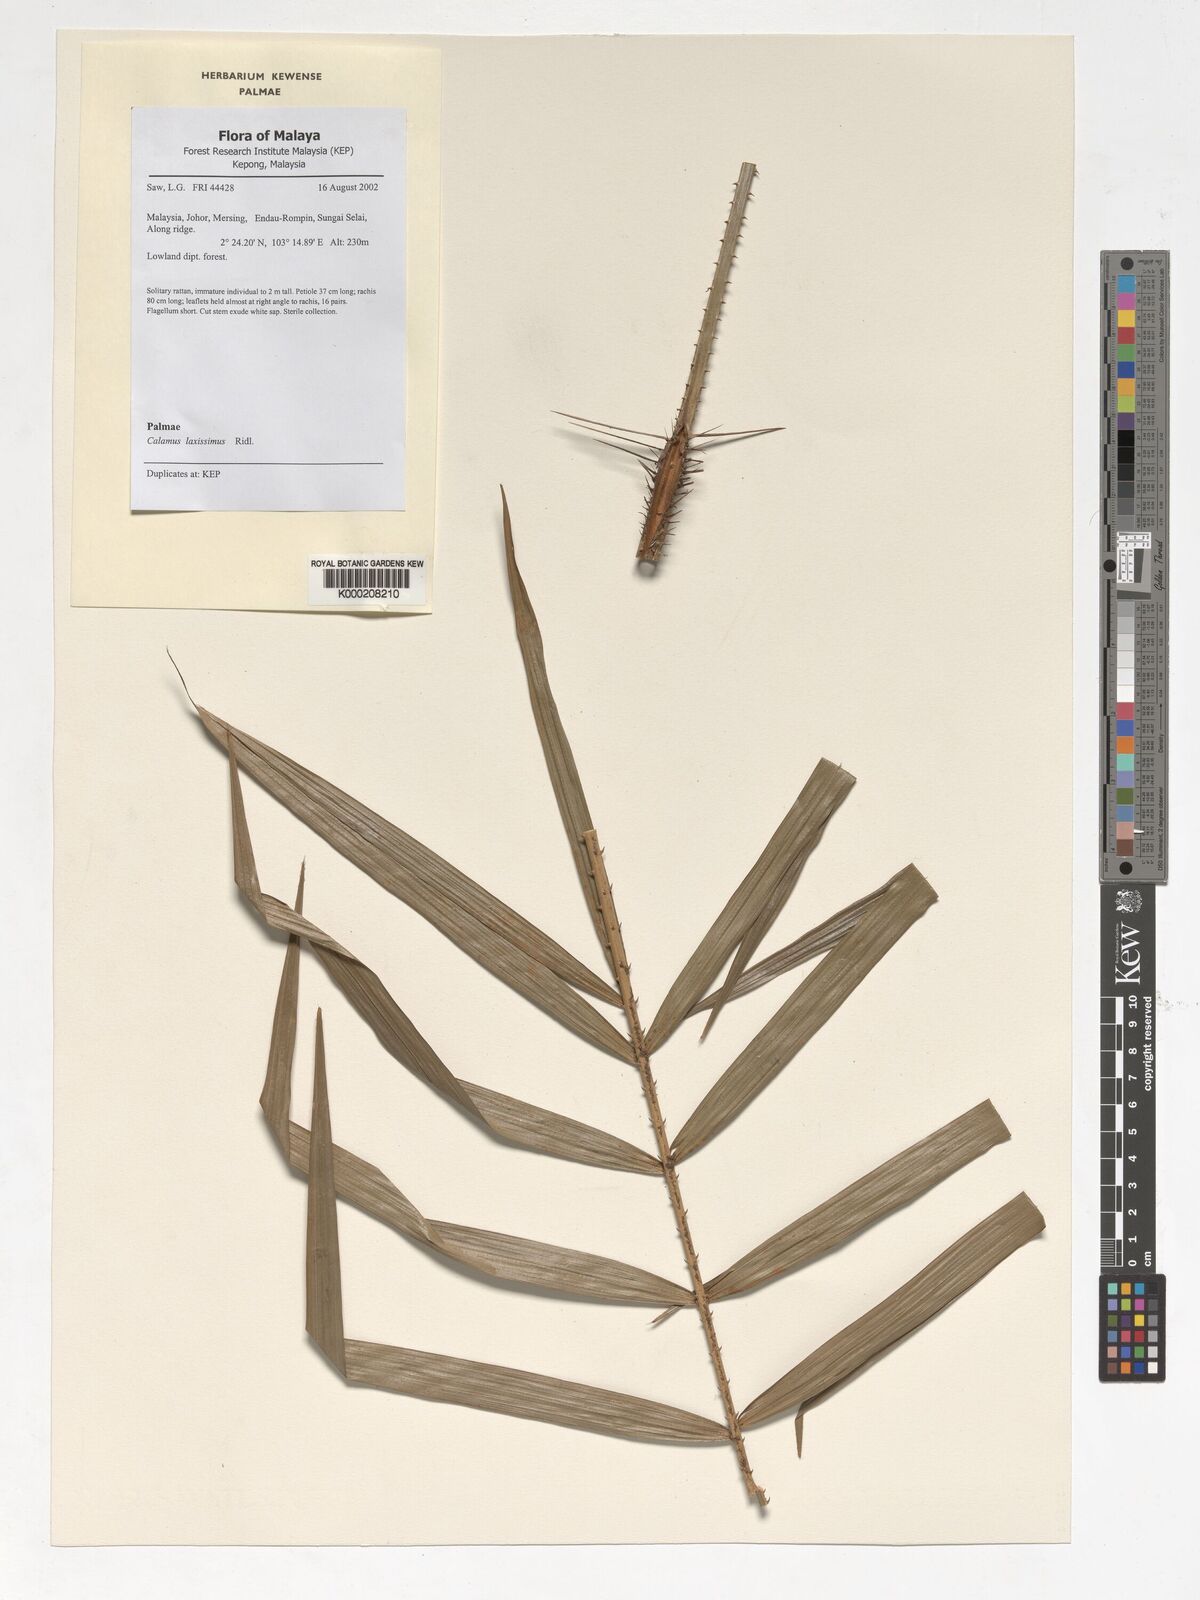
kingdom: Plantae
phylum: Tracheophyta
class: Liliopsida
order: Arecales
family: Arecaceae
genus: Calamus
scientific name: Calamus laxissimus
